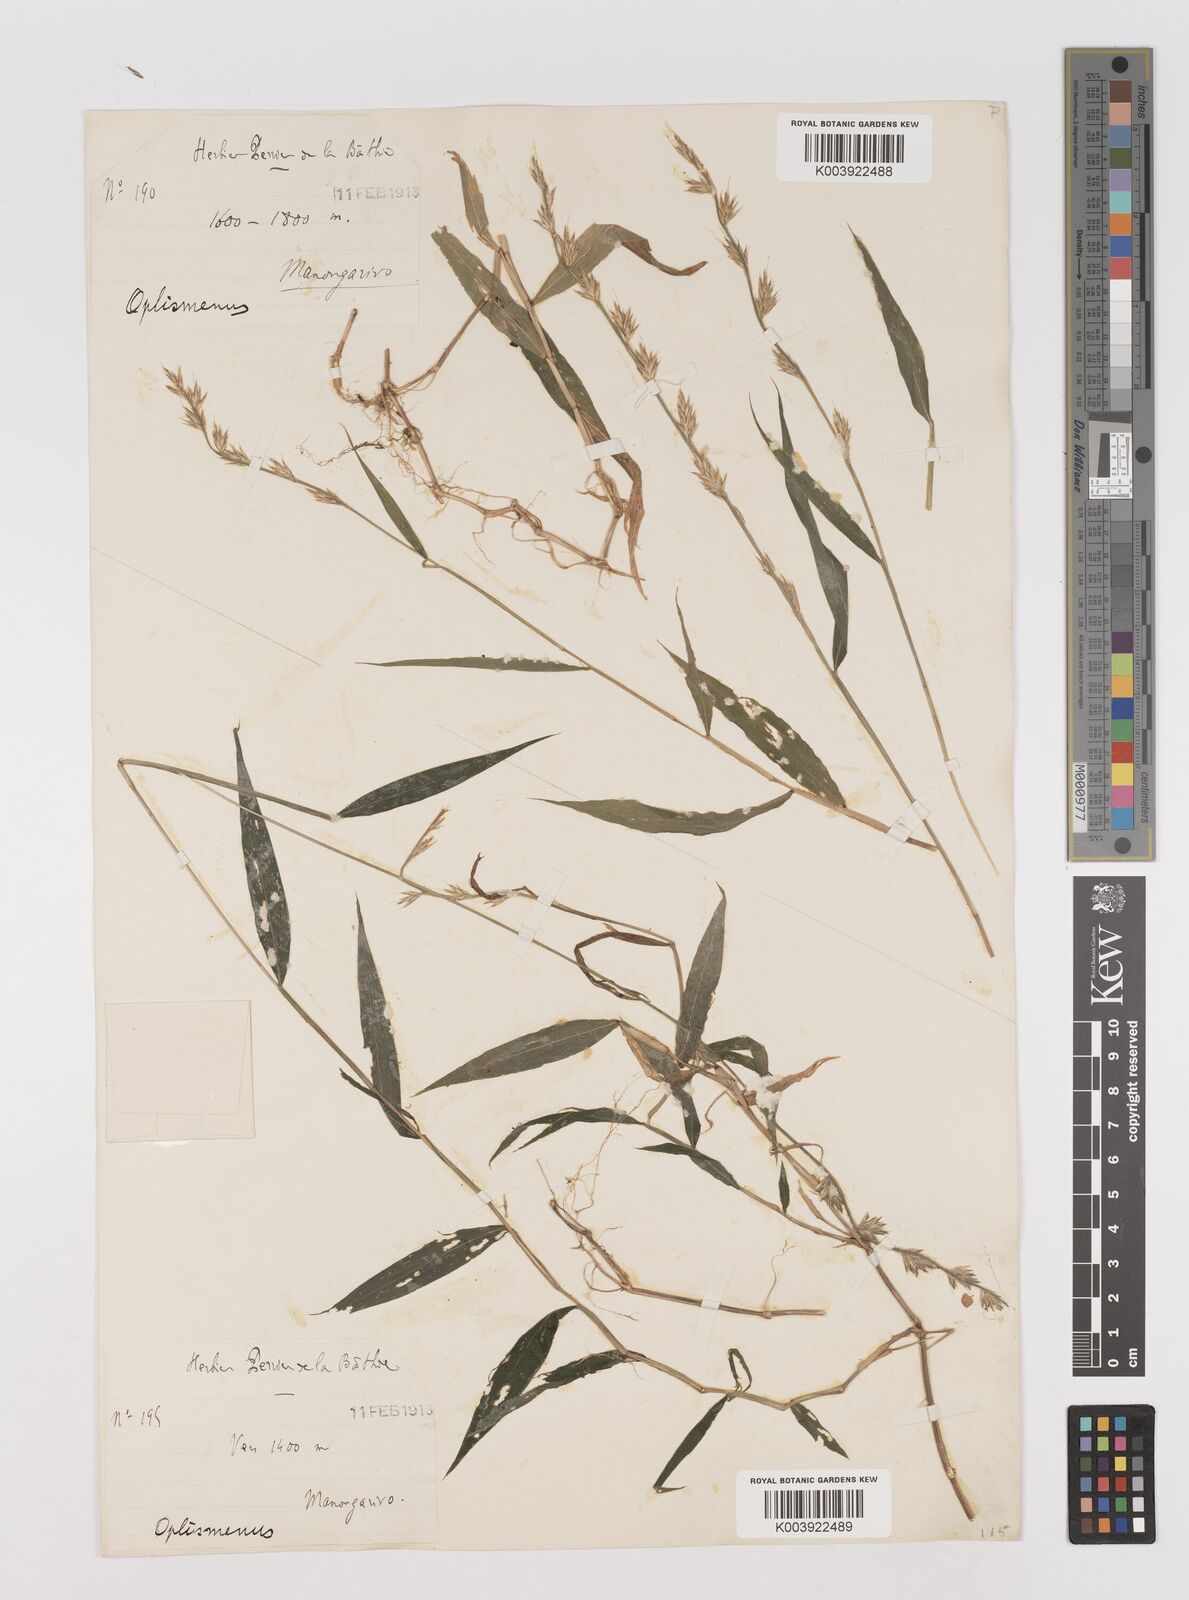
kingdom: Plantae
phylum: Tracheophyta
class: Liliopsida
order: Poales
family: Poaceae
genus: Poecilostachys
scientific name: Poecilostachys tsaratananensis
